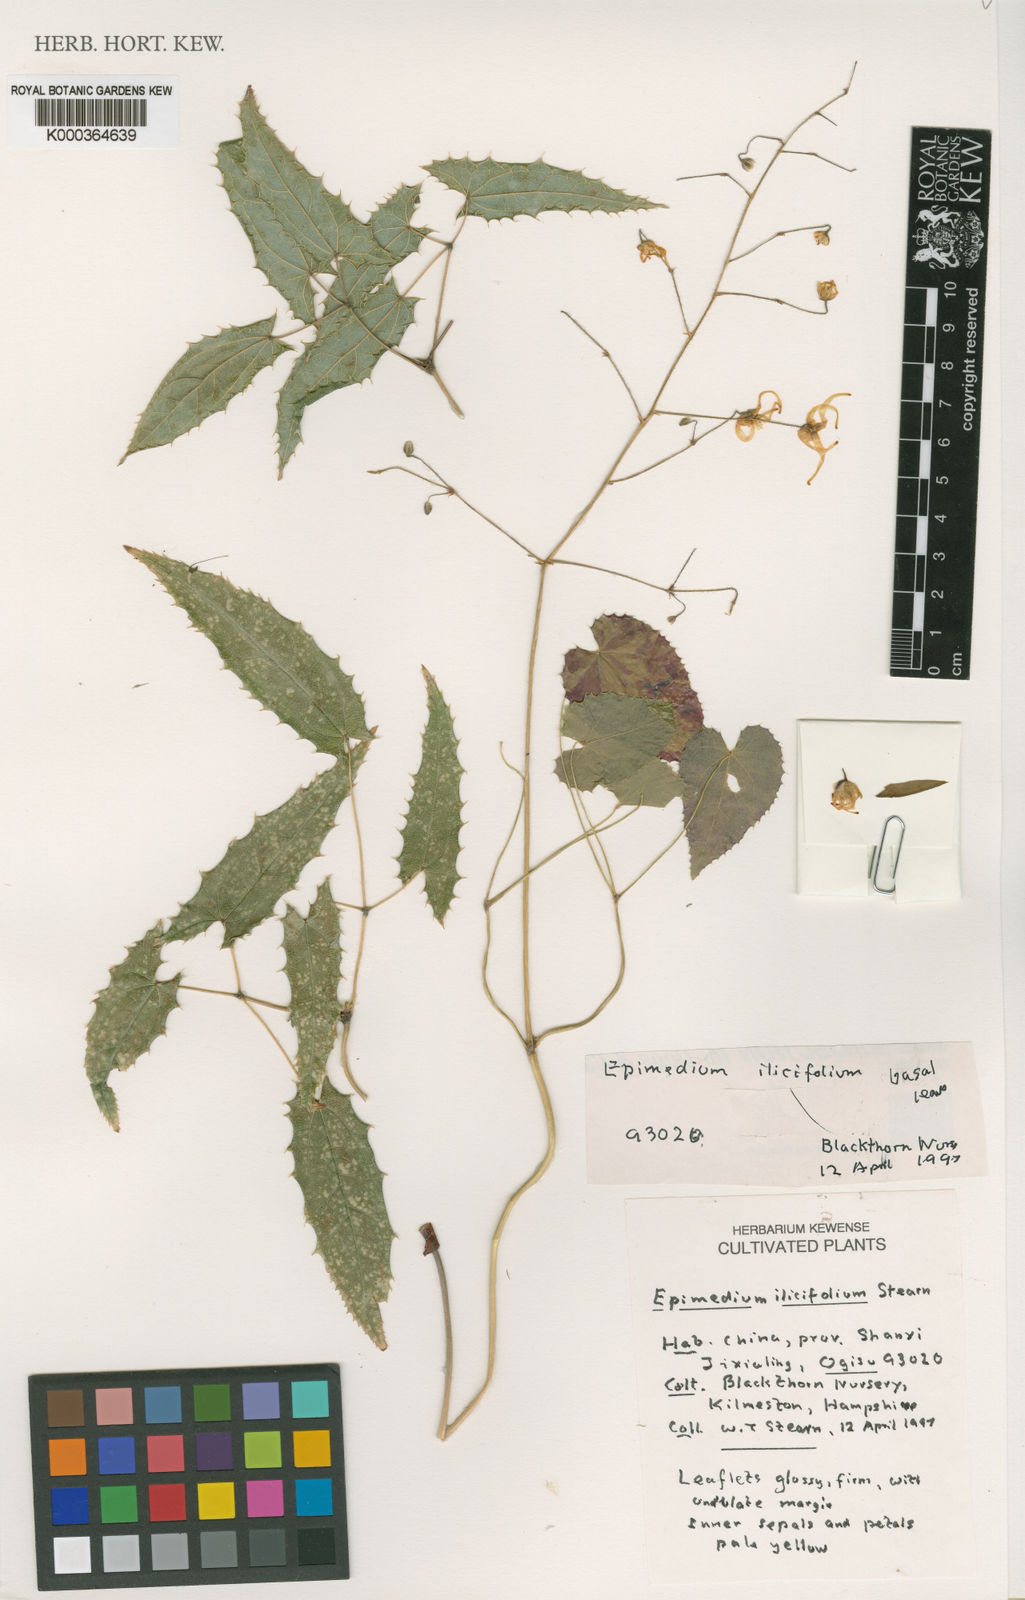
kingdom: Plantae
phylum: Tracheophyta
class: Magnoliopsida
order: Ranunculales
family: Berberidaceae
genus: Epimedium
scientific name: Epimedium ilicifolium
